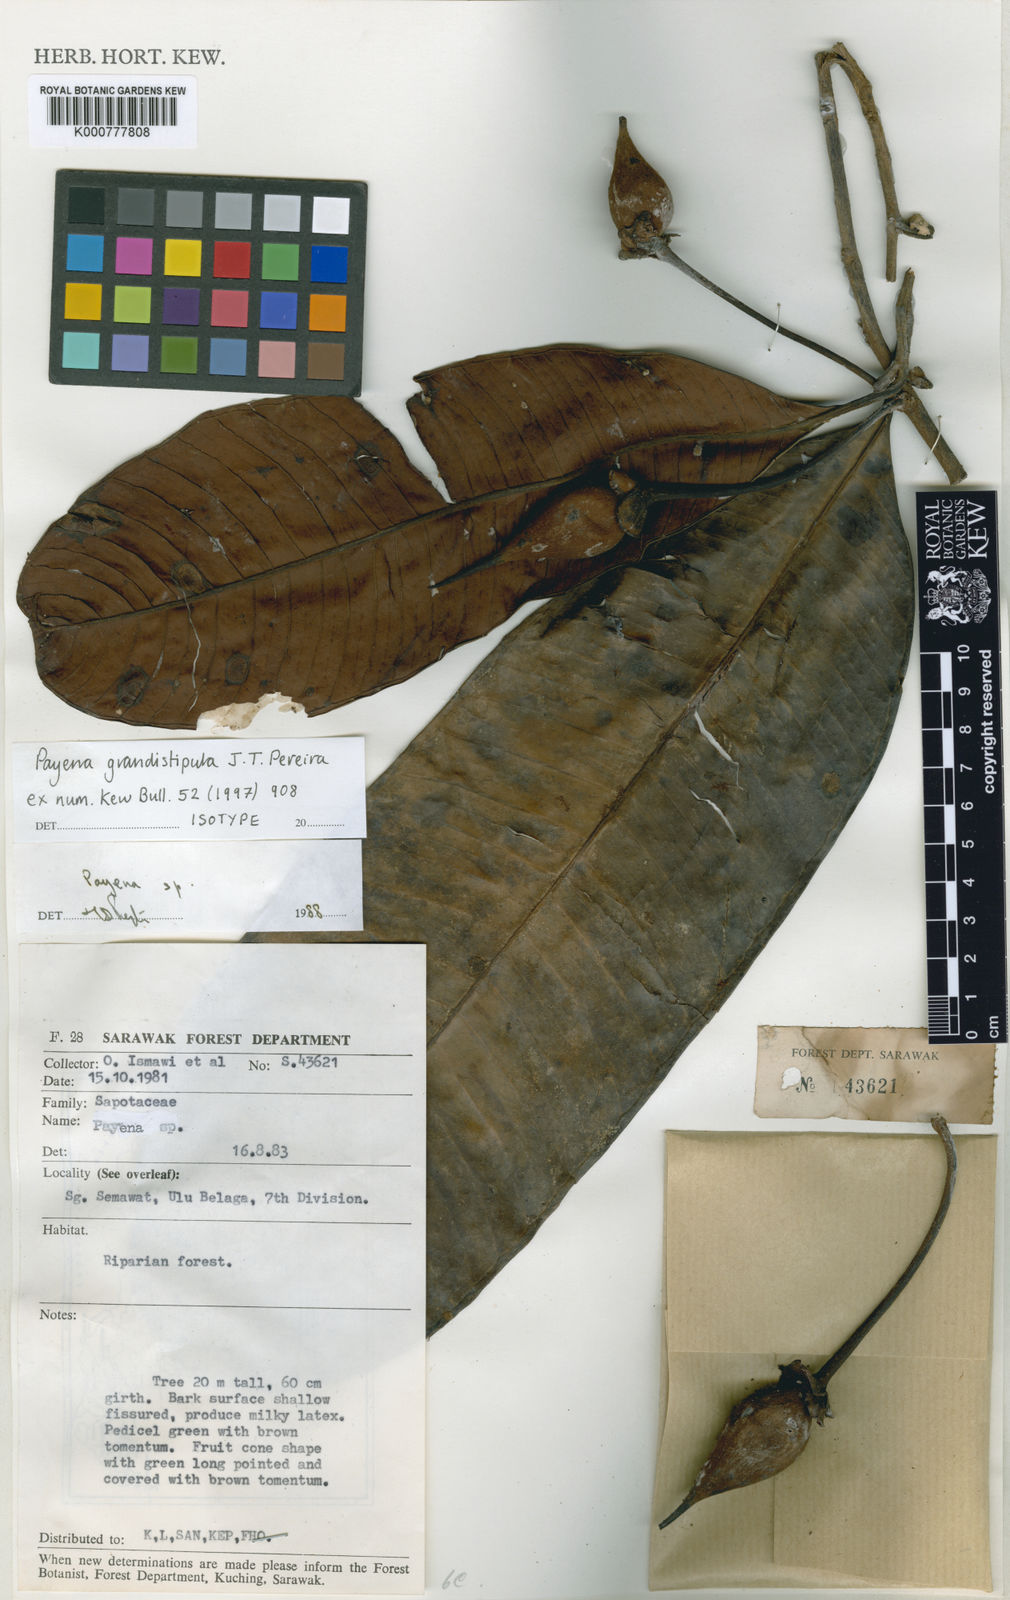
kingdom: Plantae
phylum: Tracheophyta
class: Magnoliopsida
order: Ericales
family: Sapotaceae
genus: Payena
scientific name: Payena grandistipula
